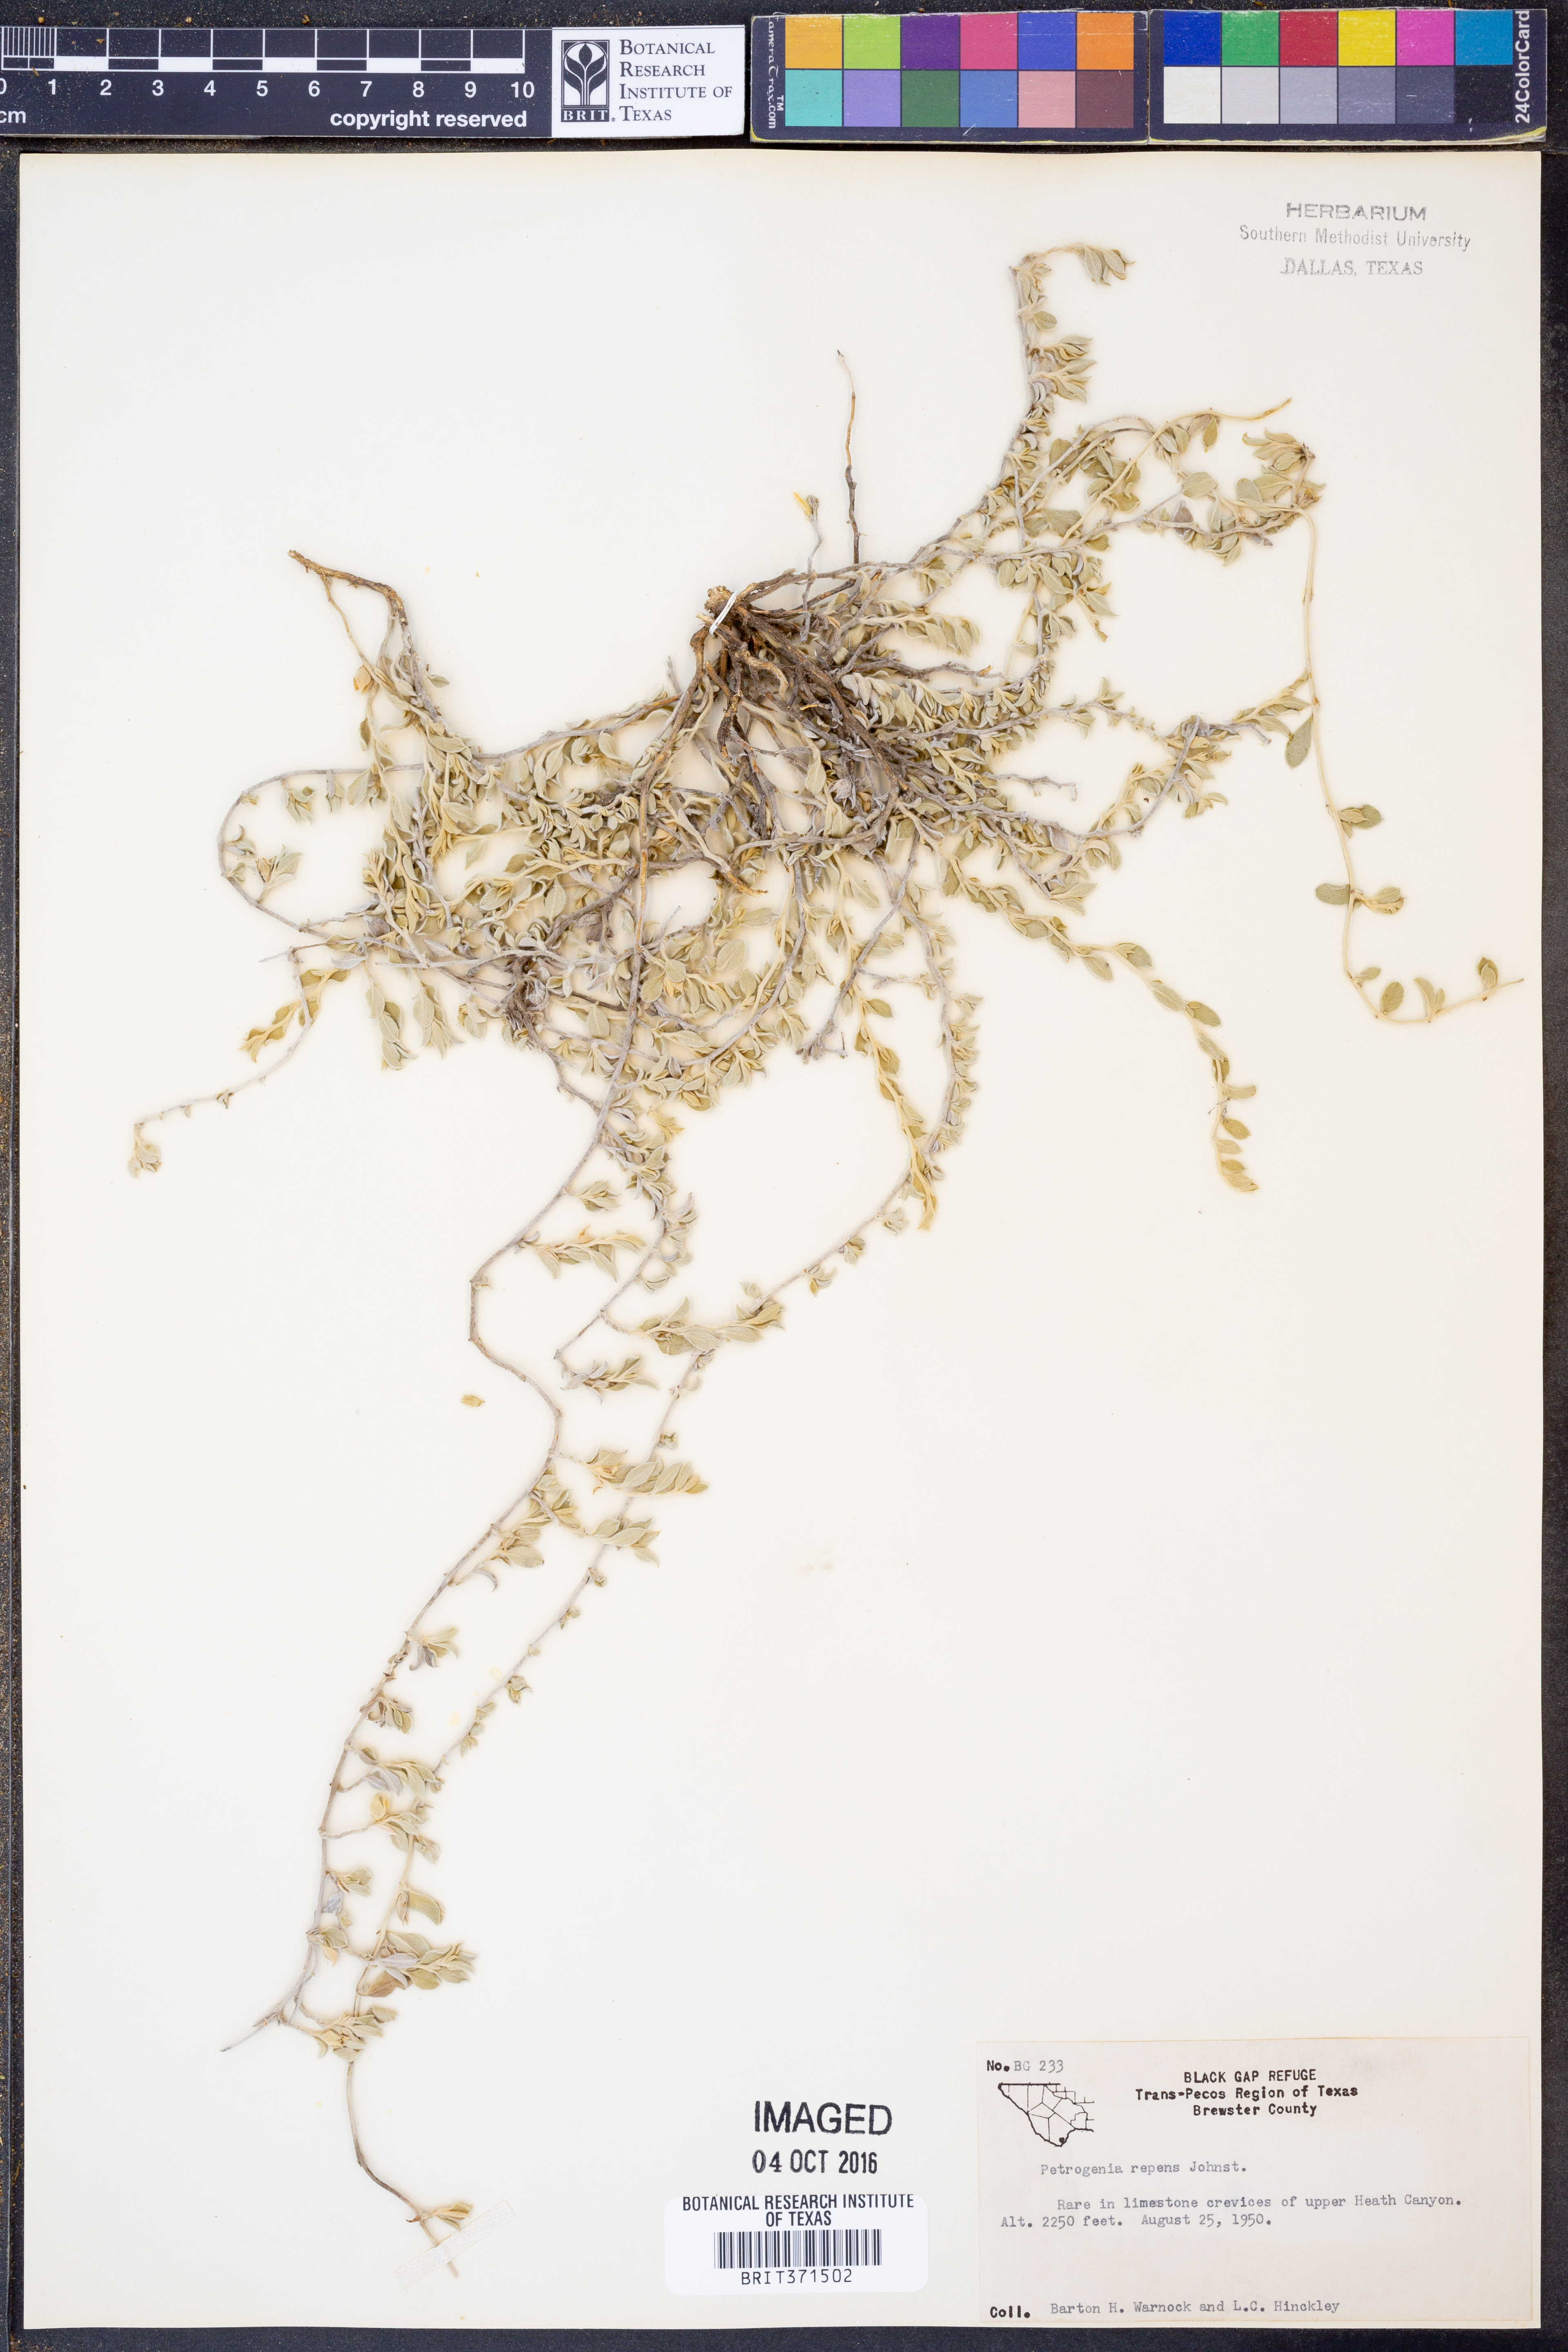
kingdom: Plantae
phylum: Tracheophyta
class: Magnoliopsida
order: Solanales
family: Convolvulaceae
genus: Bonamia
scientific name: Bonamia repens
